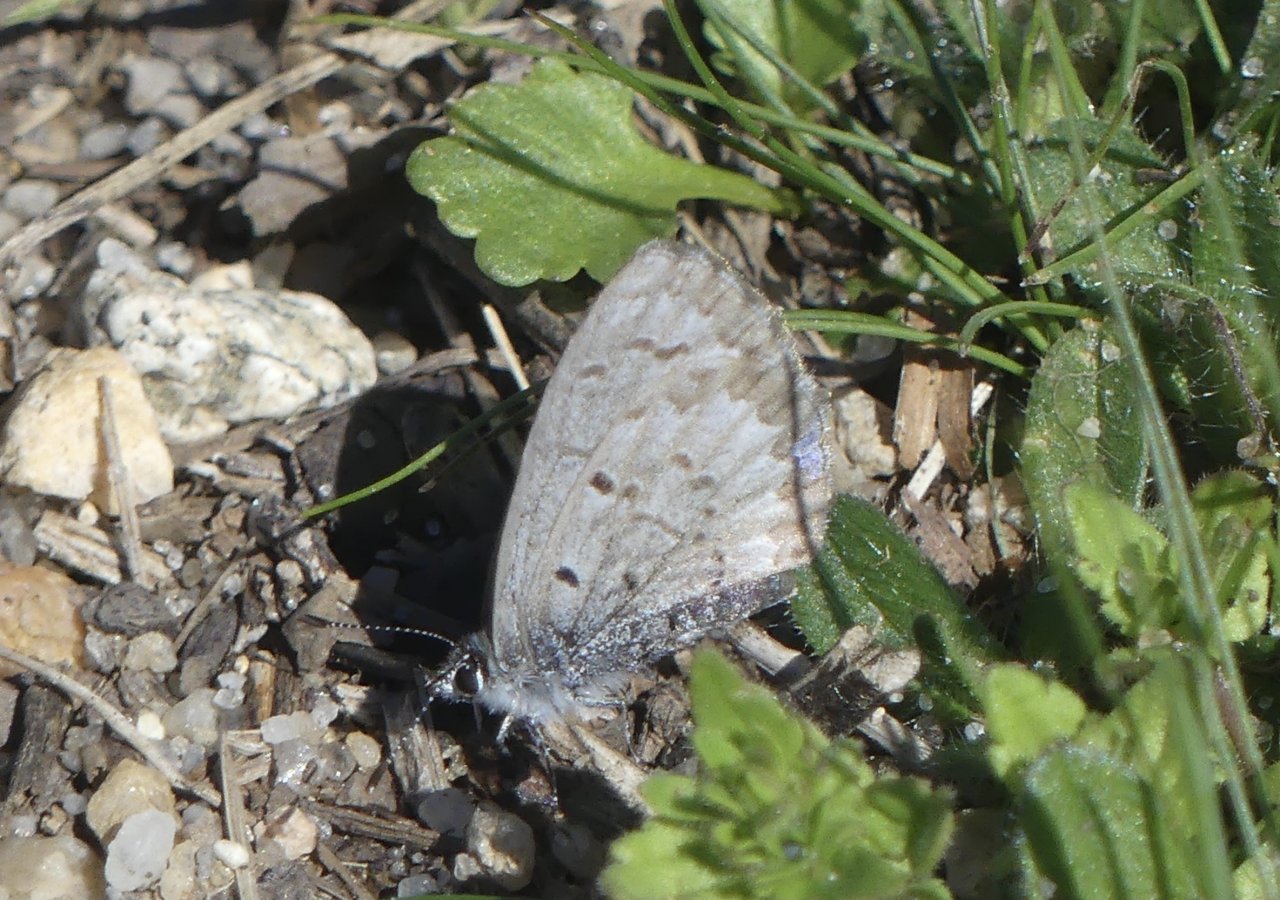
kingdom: Animalia
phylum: Arthropoda
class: Insecta
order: Lepidoptera
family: Lycaenidae
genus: Celastrina
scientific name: Celastrina ladon
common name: Spring Azure
